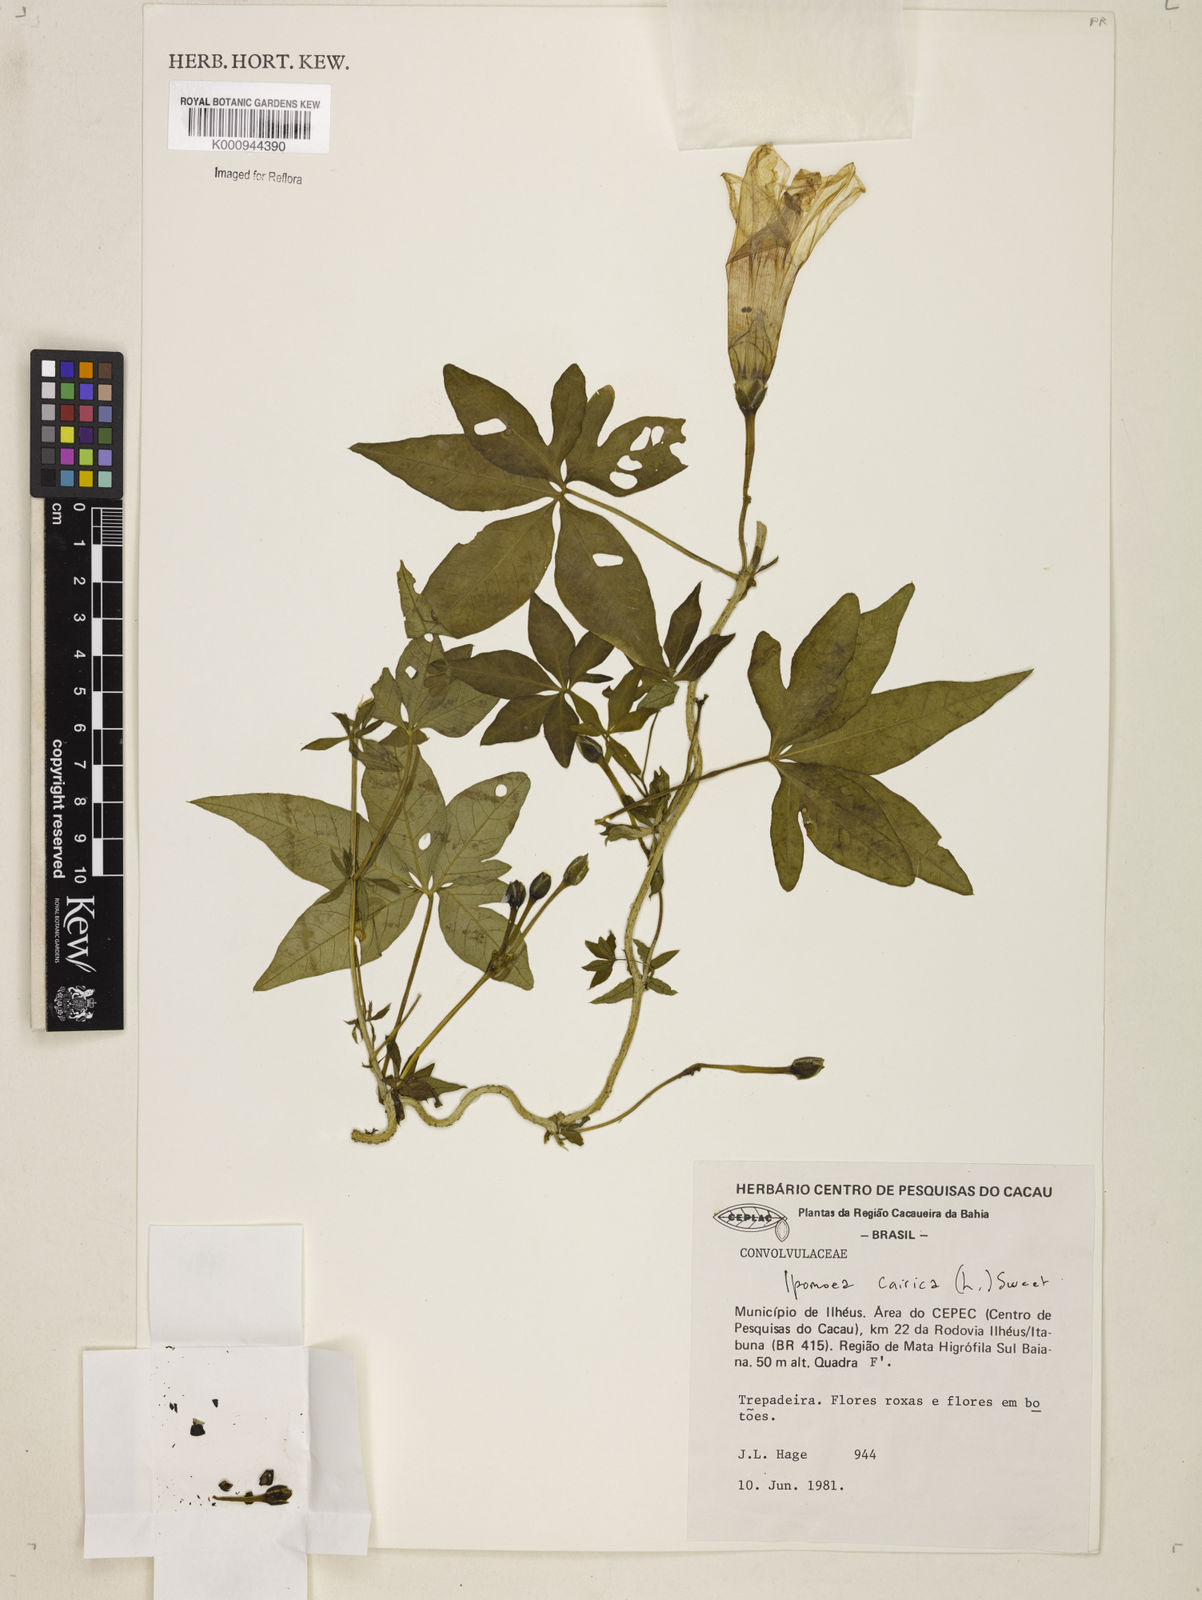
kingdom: Plantae
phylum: Tracheophyta
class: Magnoliopsida
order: Solanales
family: Convolvulaceae
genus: Ipomoea
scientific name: Ipomoea cairica
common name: Mile a minute vine
